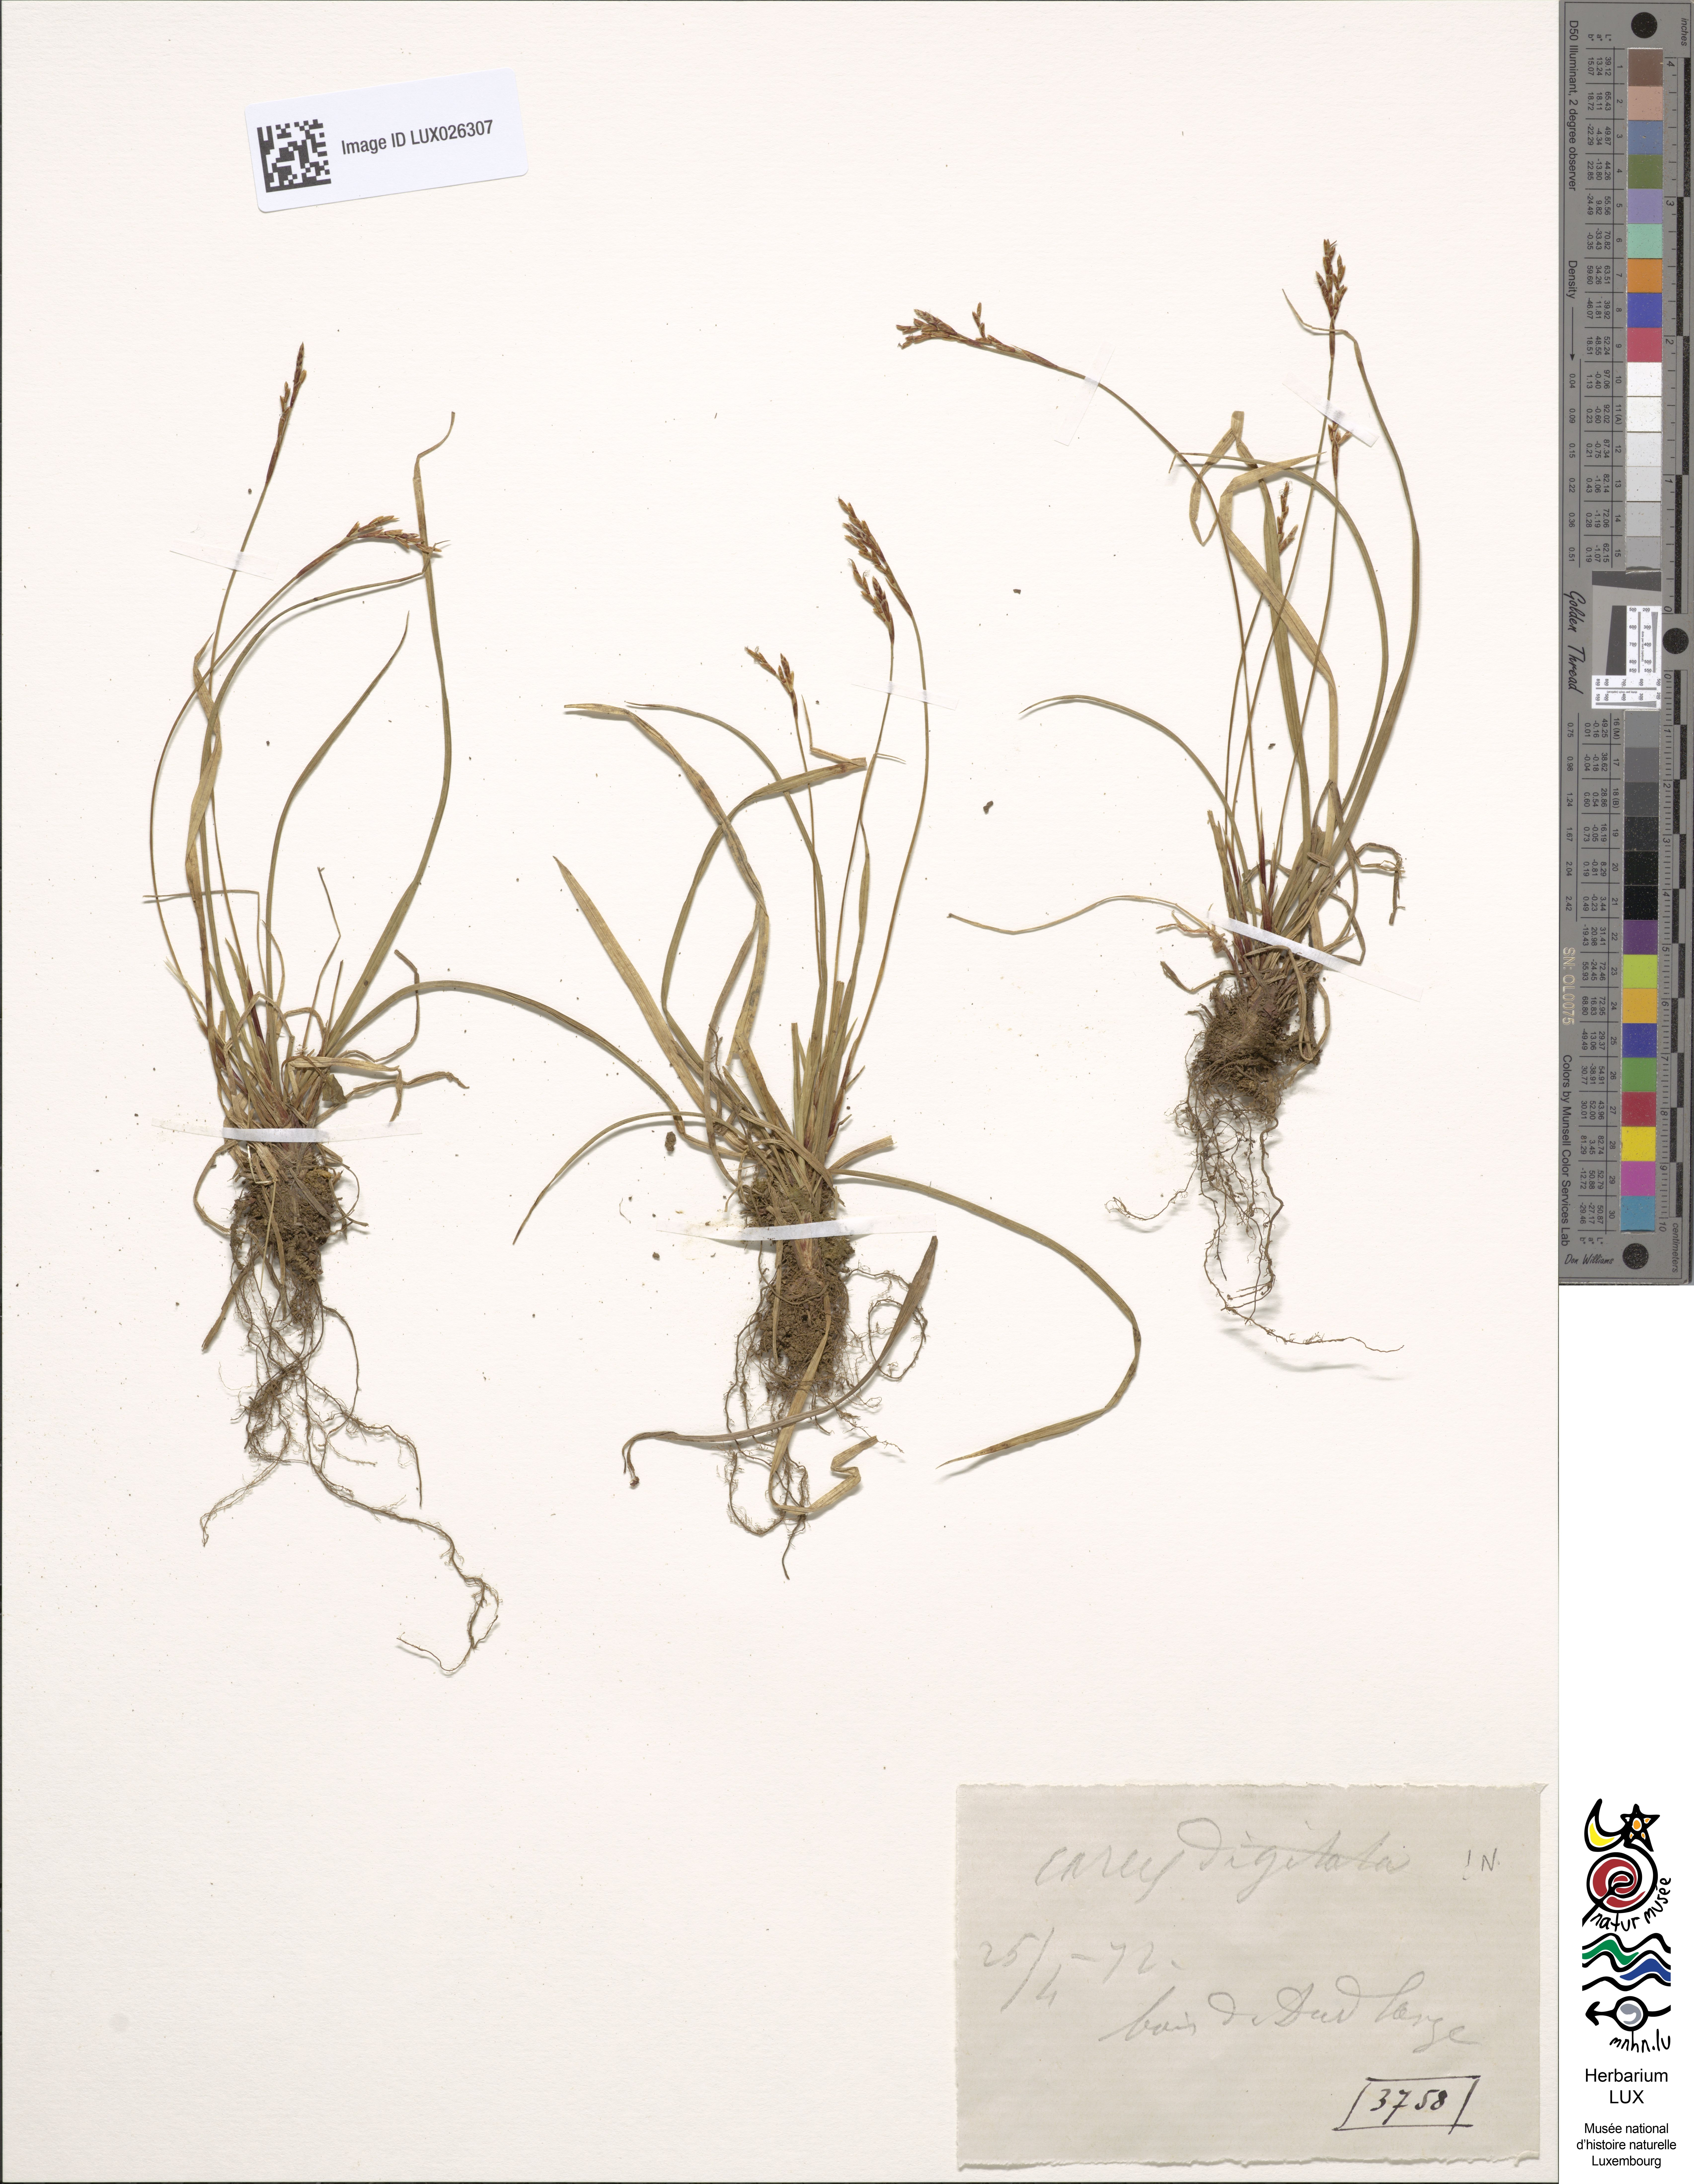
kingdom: Plantae
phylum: Tracheophyta
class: Liliopsida
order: Poales
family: Cyperaceae
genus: Carex
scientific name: Carex digitata
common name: Fingered sedge
